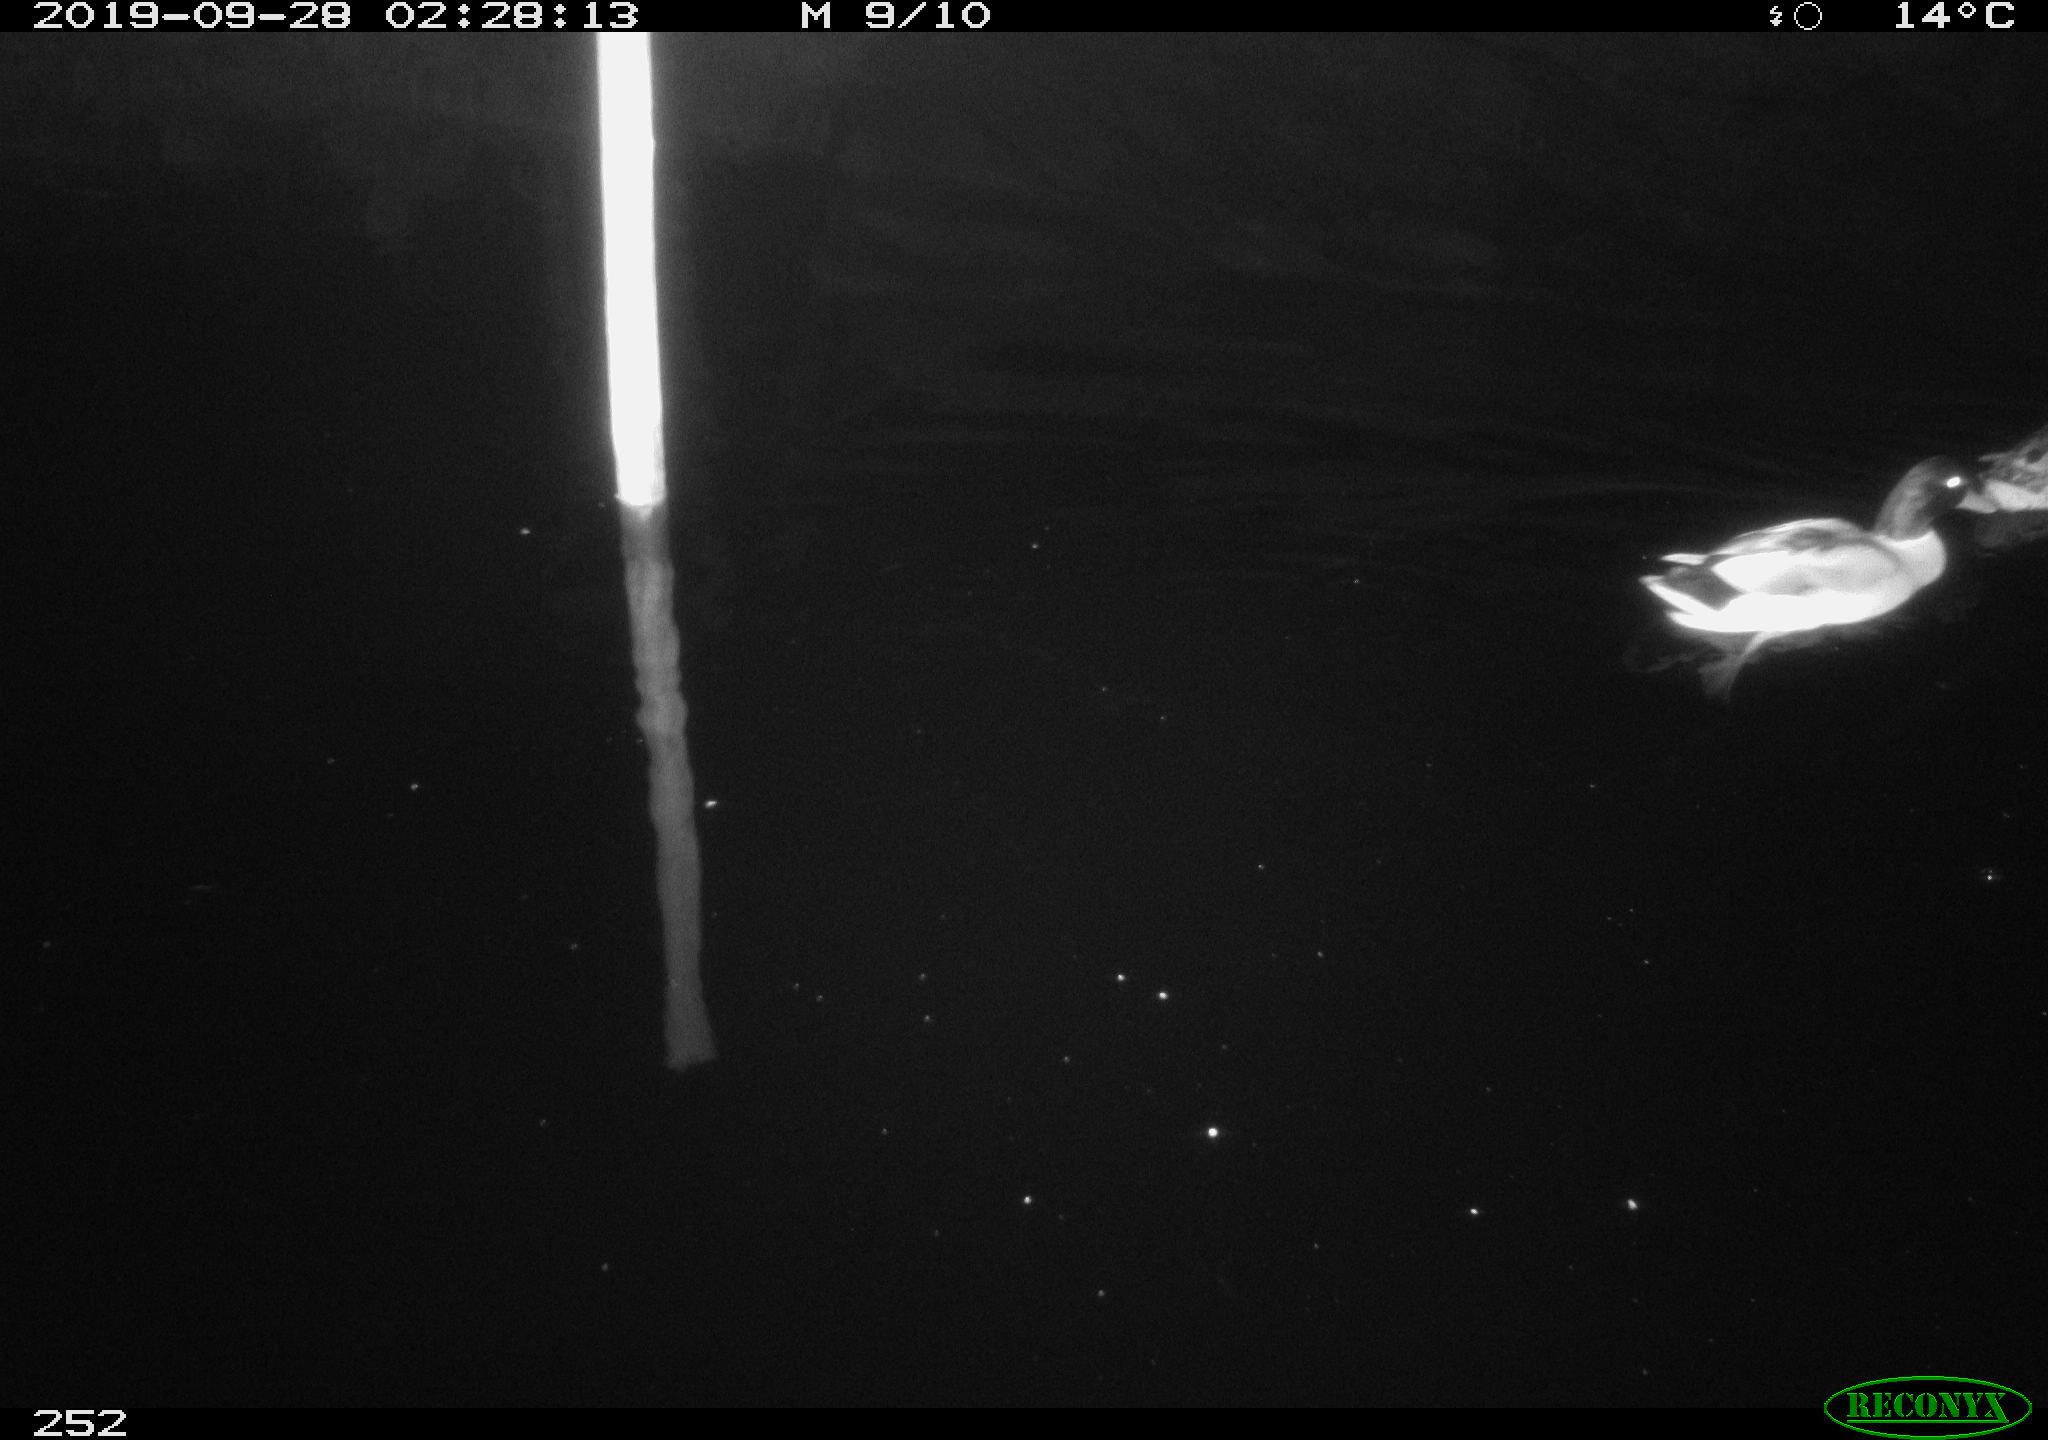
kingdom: Animalia
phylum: Chordata
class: Aves
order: Anseriformes
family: Anatidae
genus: Anas
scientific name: Anas platyrhynchos
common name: Mallard
